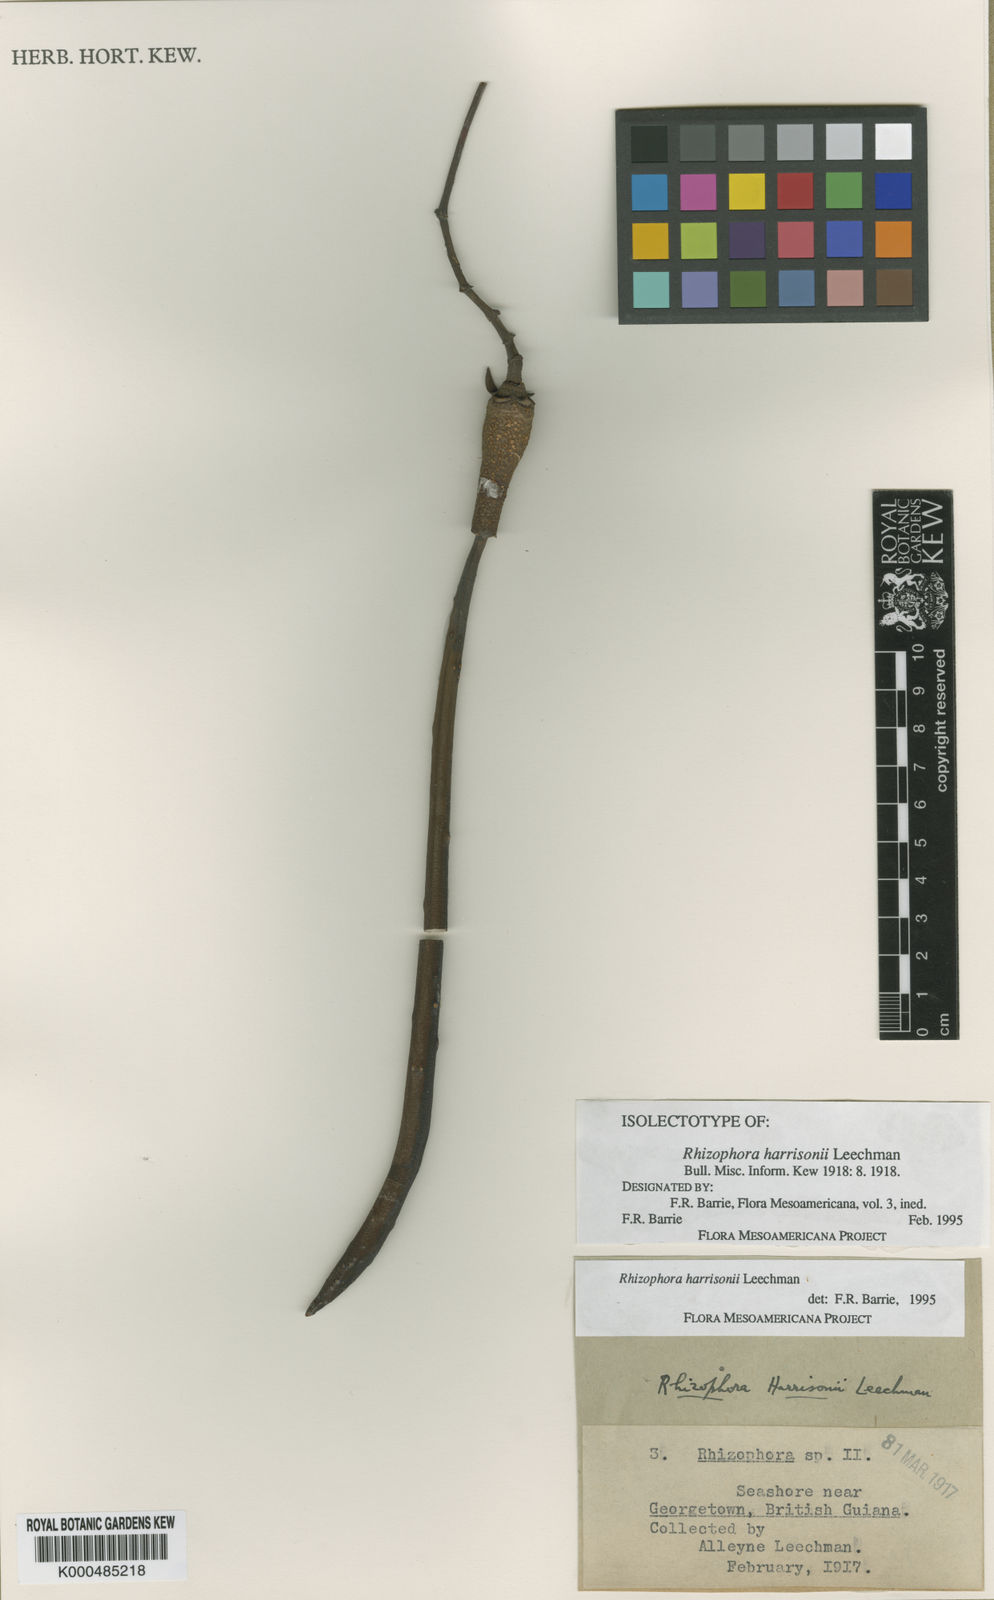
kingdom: Plantae
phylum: Tracheophyta
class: Magnoliopsida
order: Malpighiales
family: Rhizophoraceae
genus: Rhizophora
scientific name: Rhizophora harrisonii
